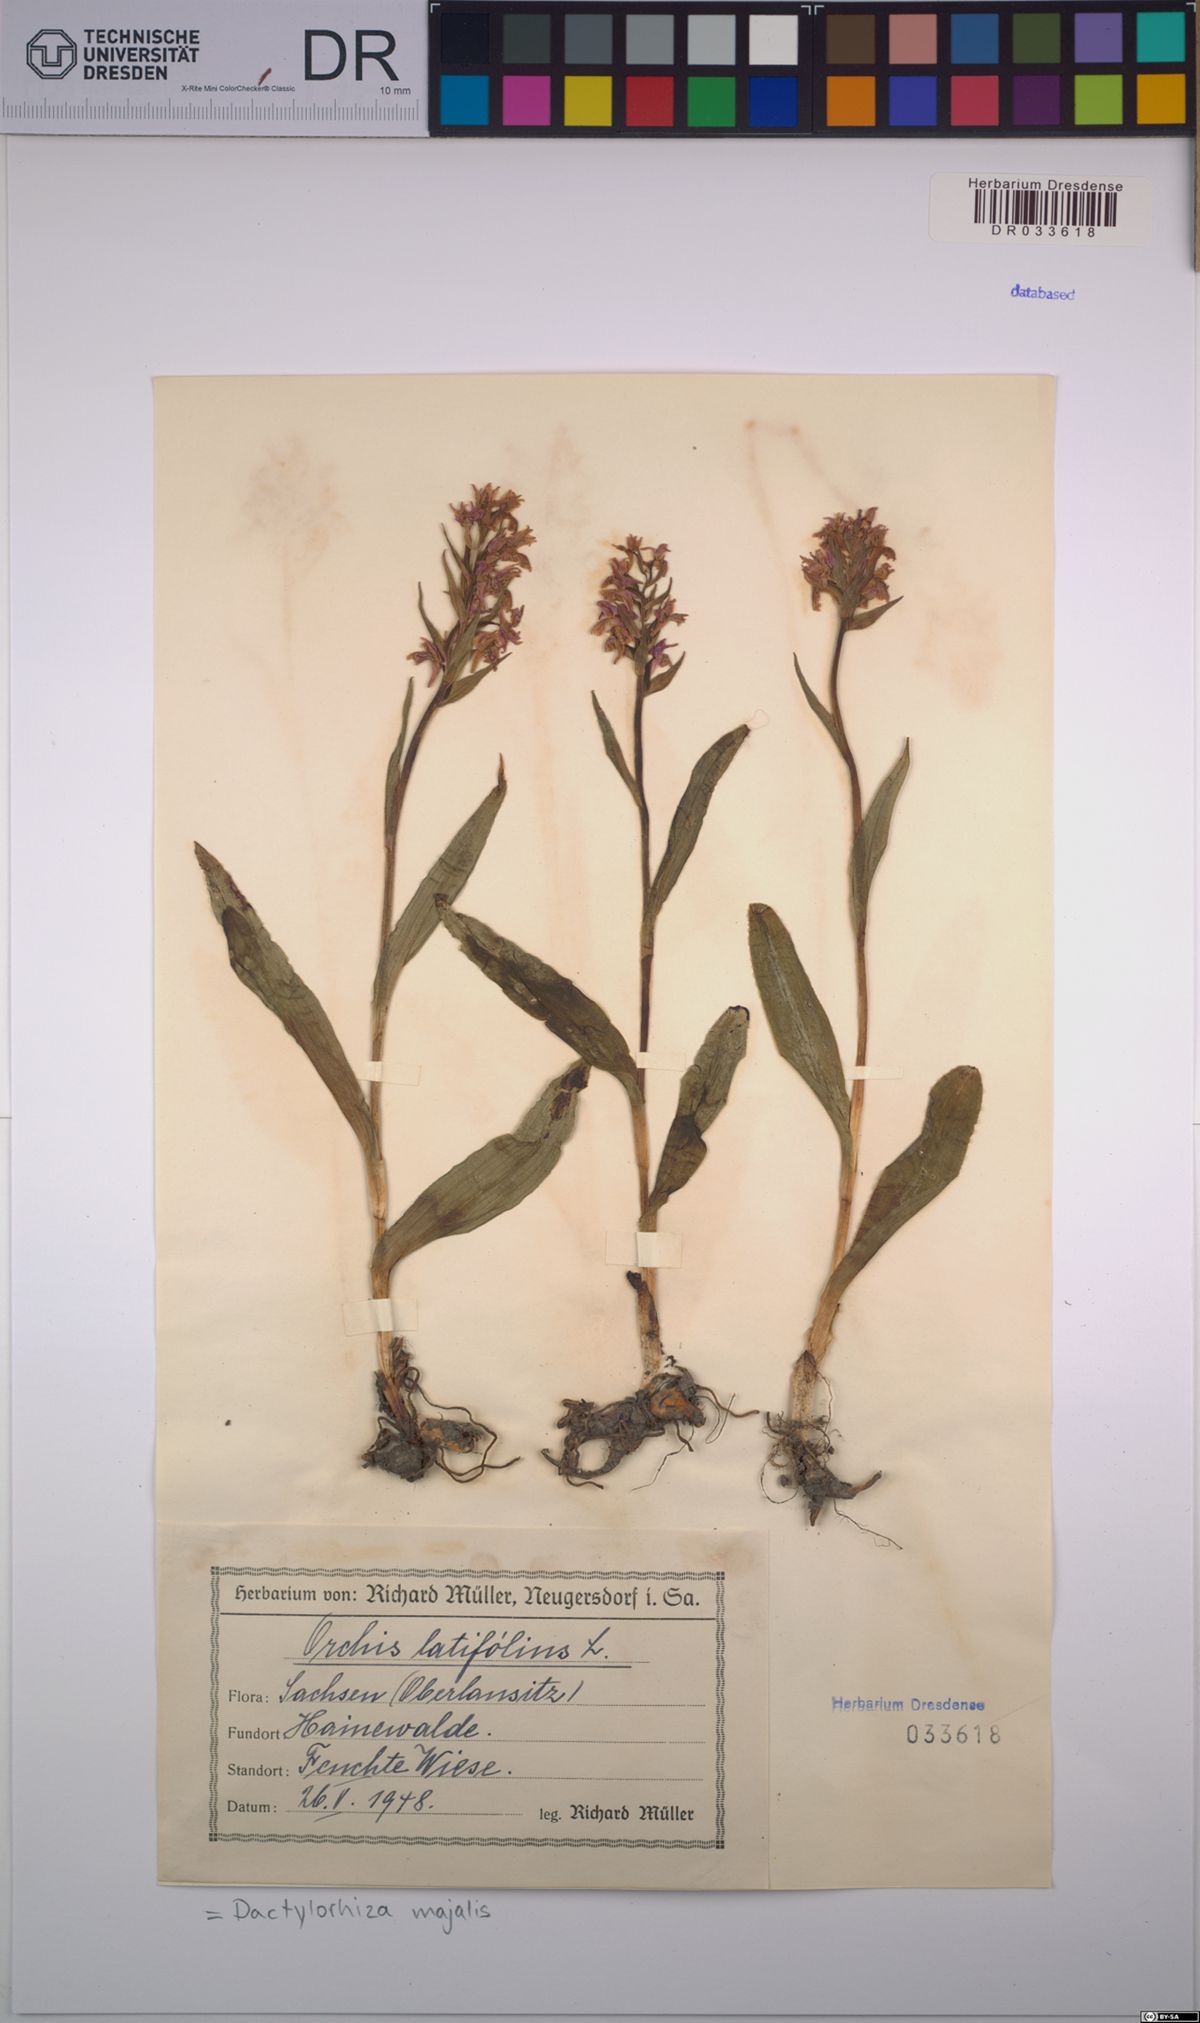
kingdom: Plantae
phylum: Tracheophyta
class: Liliopsida
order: Asparagales
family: Orchidaceae
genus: Dactylorhiza
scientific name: Dactylorhiza majalis
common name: Marsh orchid
